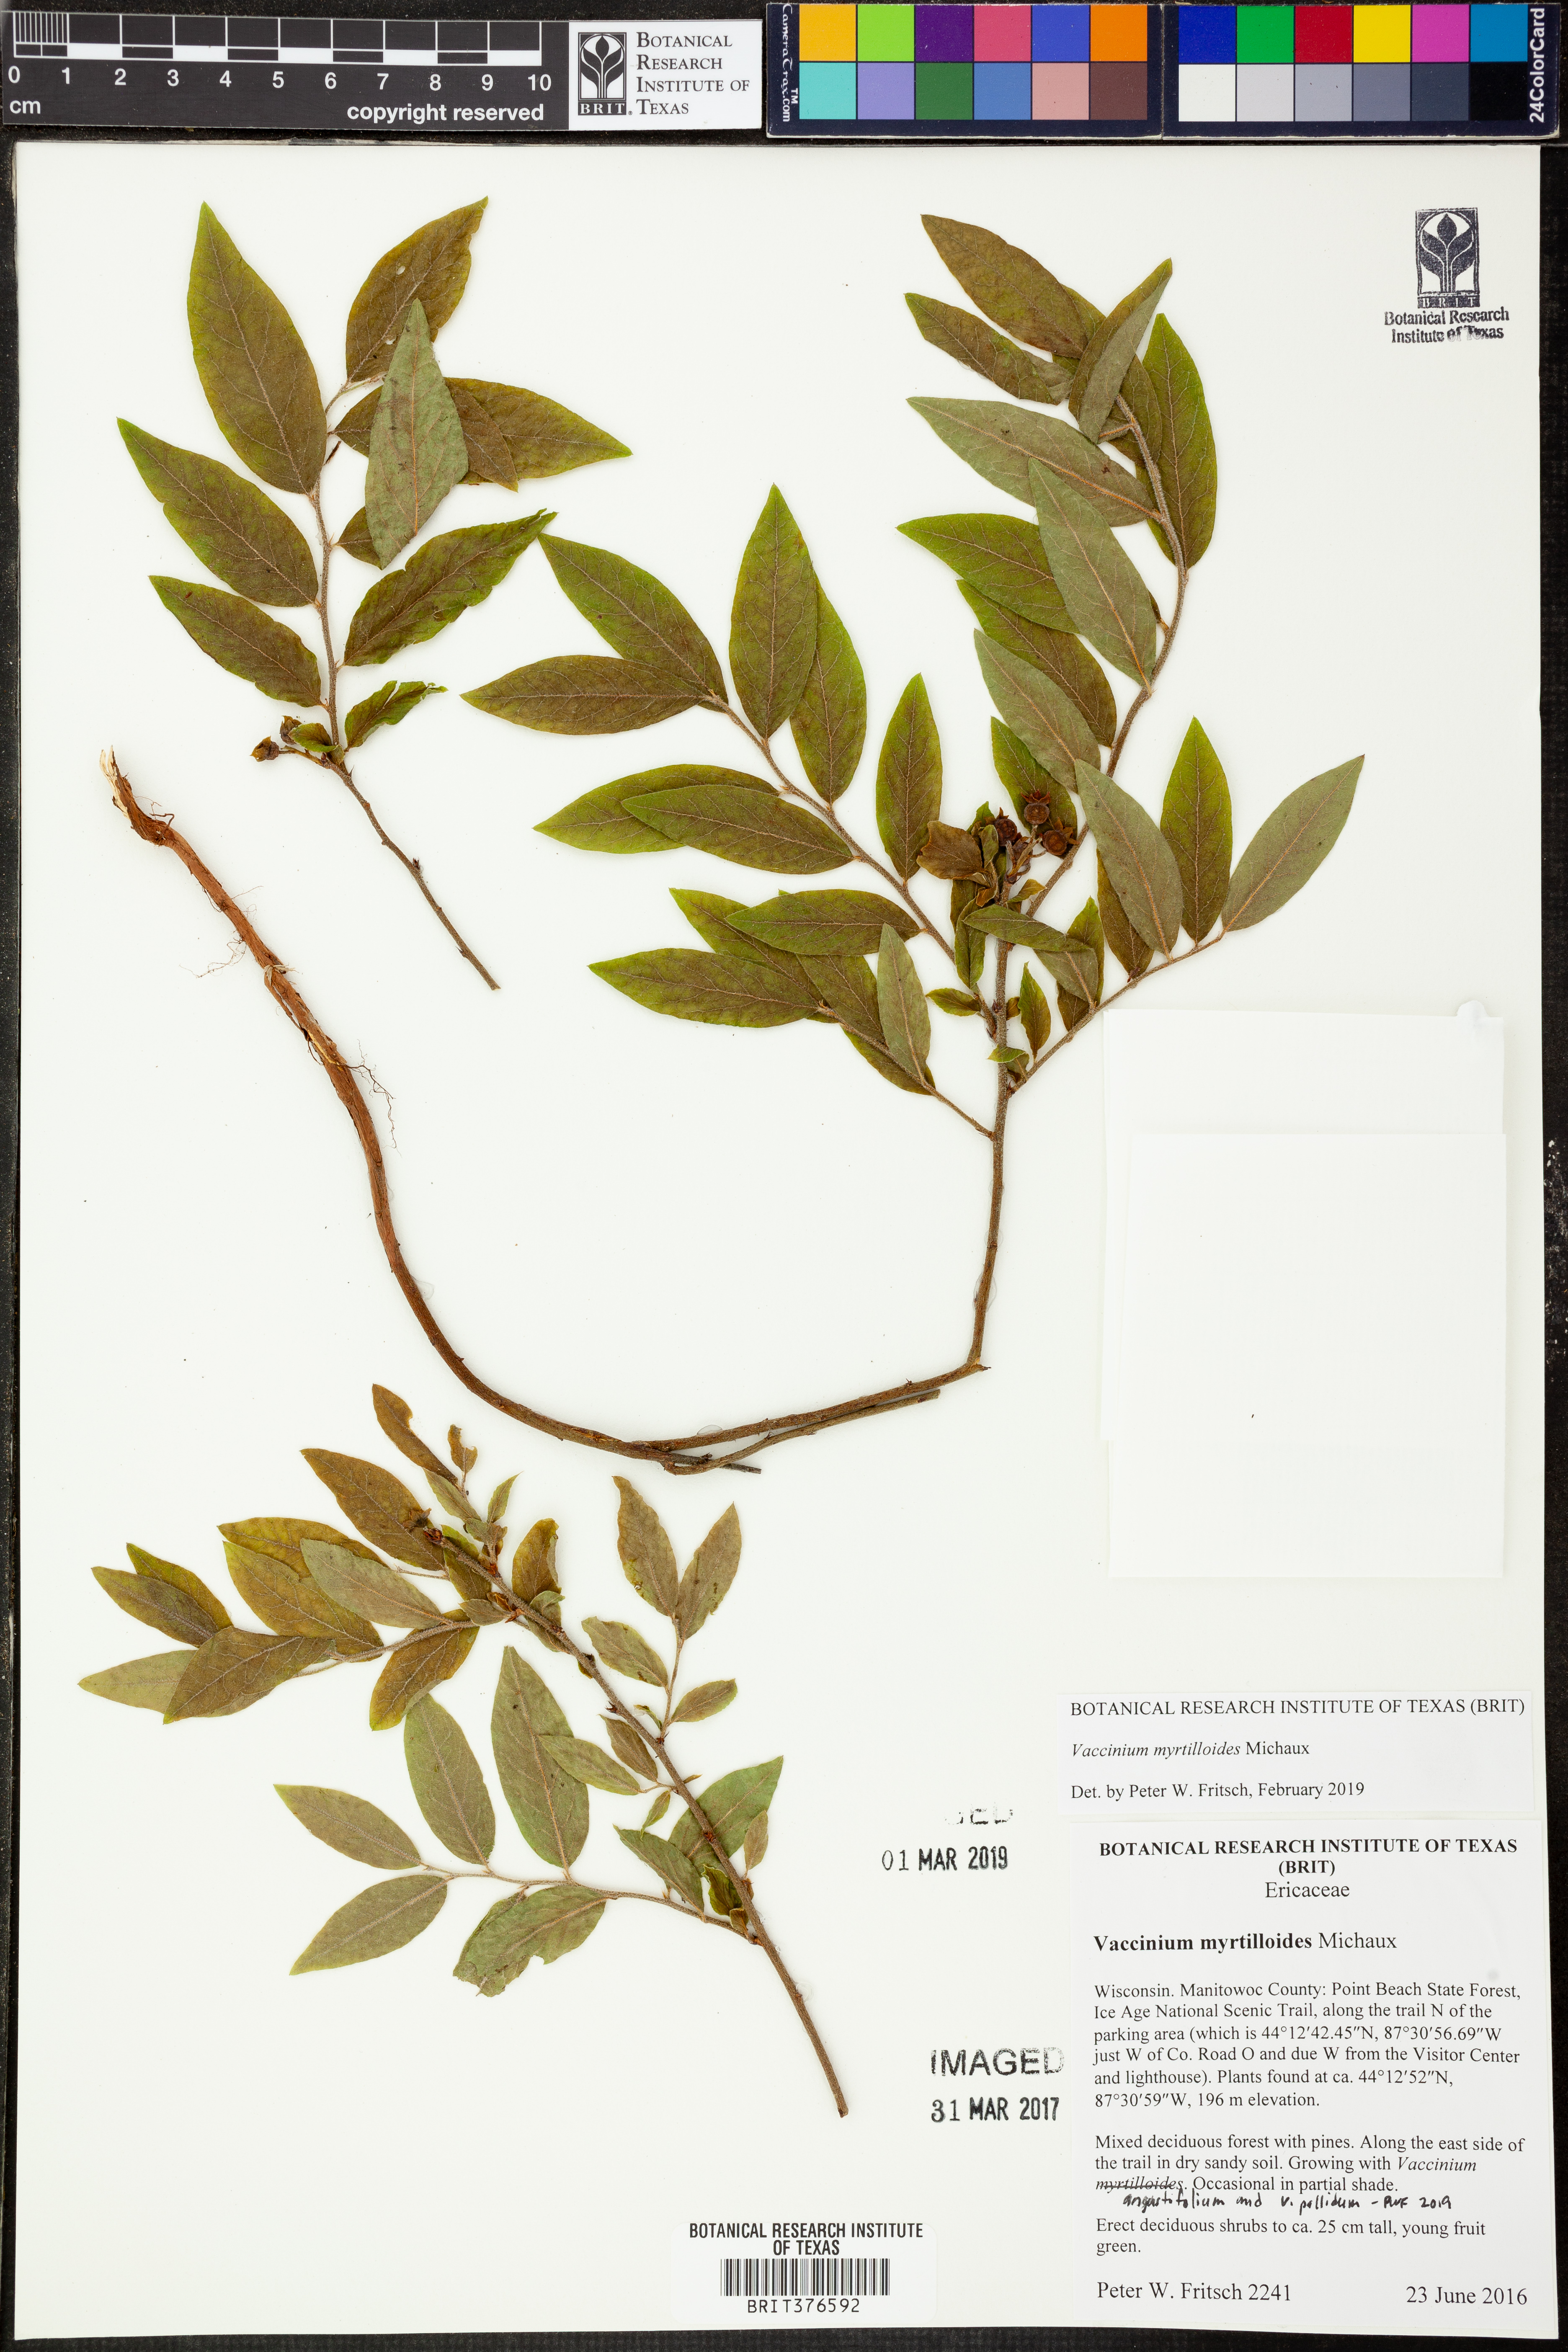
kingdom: Plantae
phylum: Tracheophyta
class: Magnoliopsida
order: Ericales
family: Ericaceae
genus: Vaccinium
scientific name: Vaccinium myrtilloides
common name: Canada blueberry
